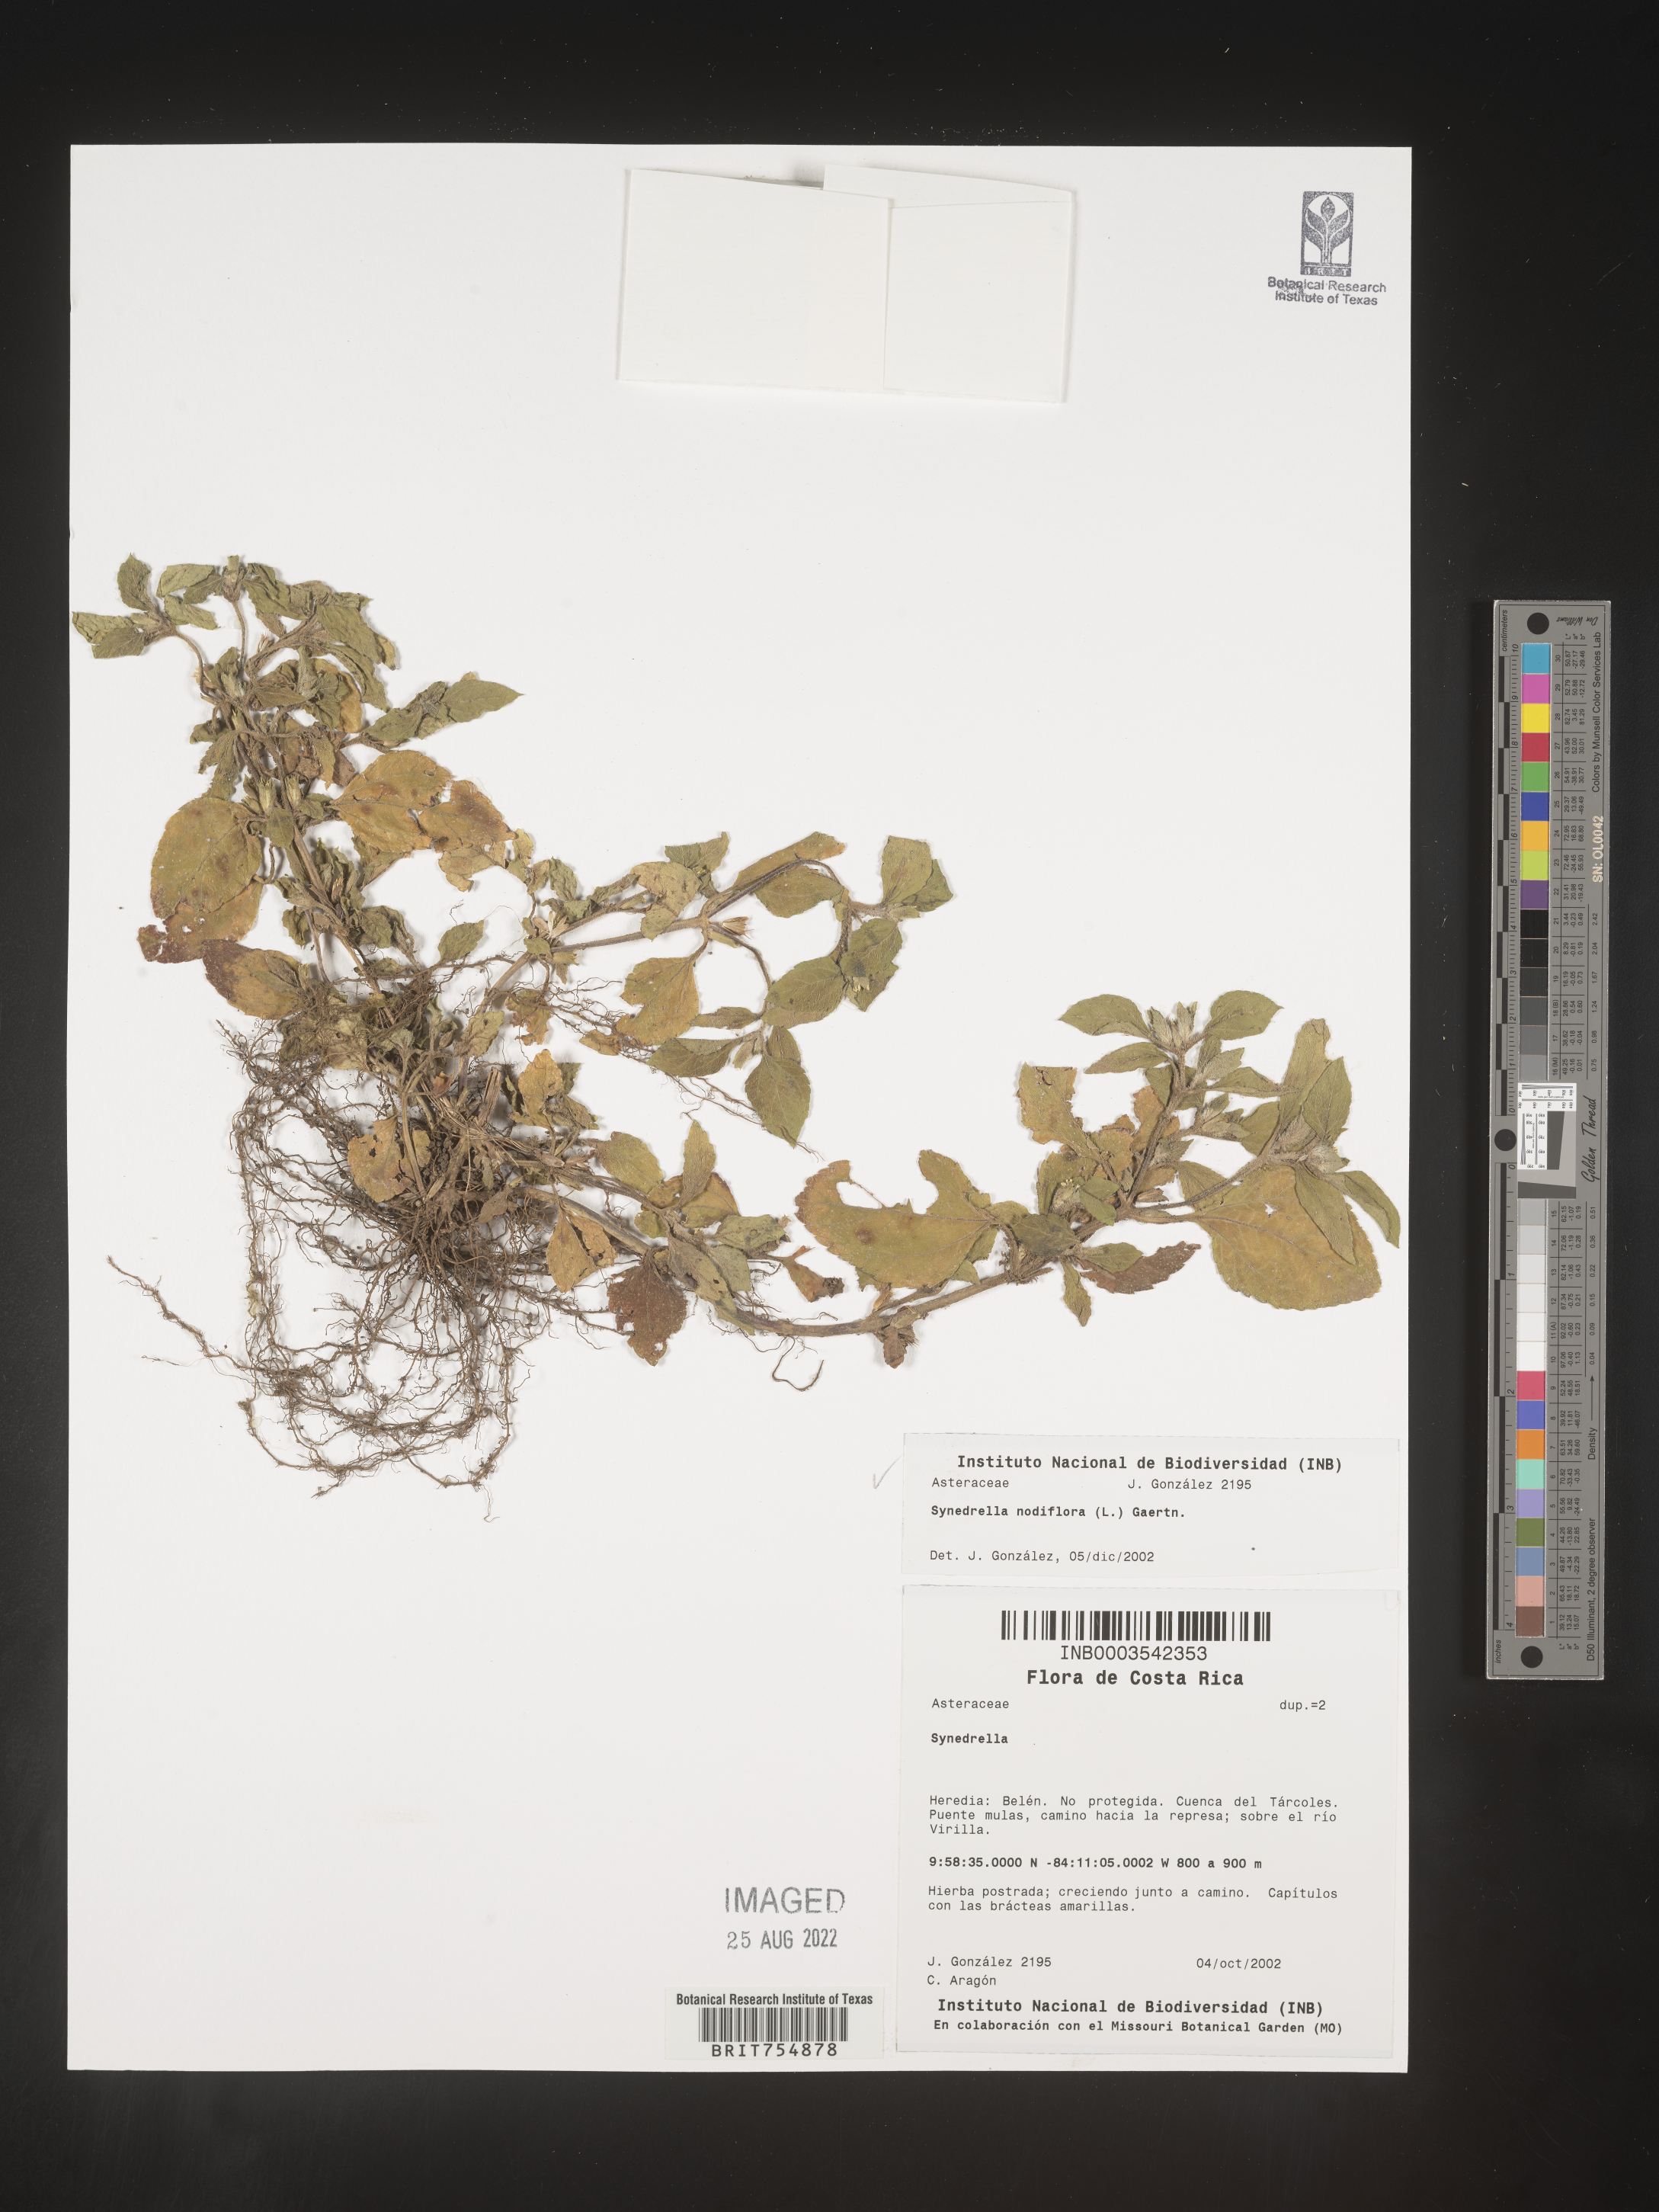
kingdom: Plantae
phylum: Tracheophyta
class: Magnoliopsida
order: Asterales
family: Asteraceae
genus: Synedrella
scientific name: Synedrella
